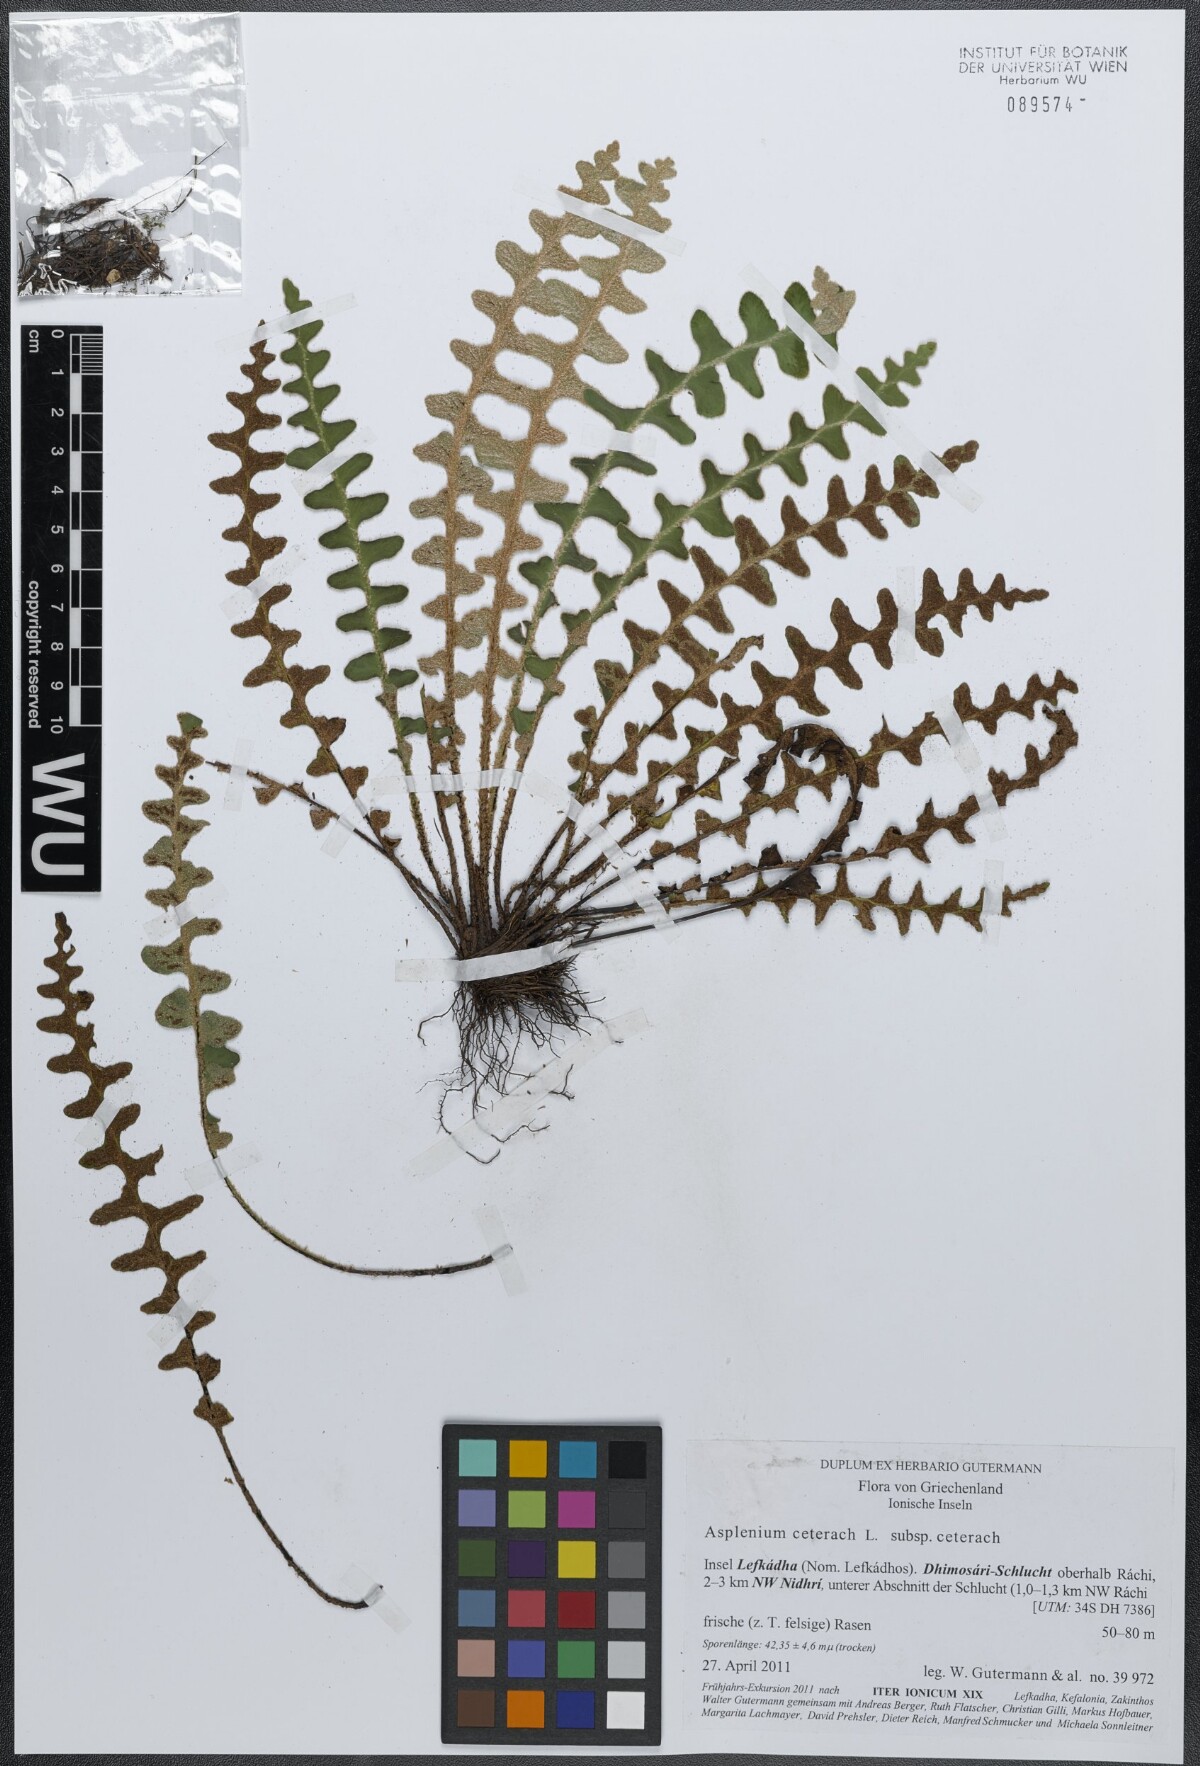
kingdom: Plantae
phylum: Tracheophyta
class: Polypodiopsida
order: Polypodiales
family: Aspleniaceae
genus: Asplenium
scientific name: Asplenium ceterach
